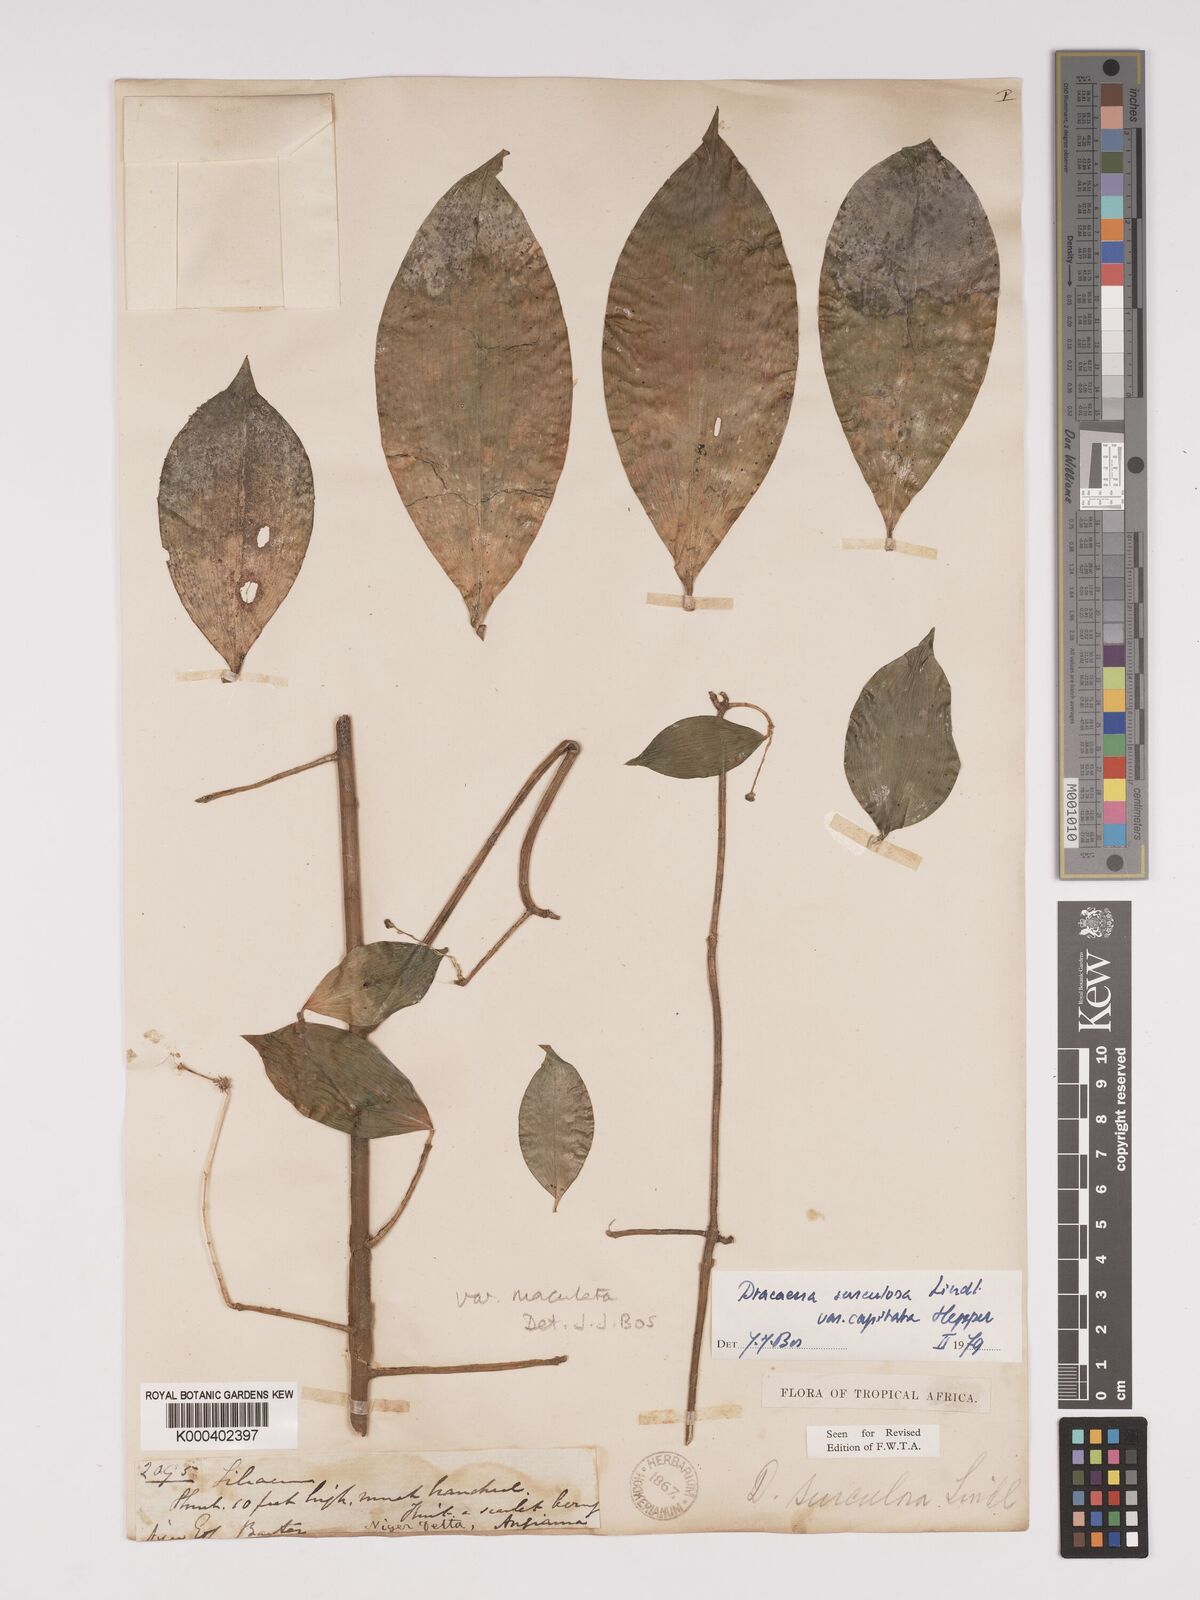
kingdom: Plantae
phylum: Tracheophyta
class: Liliopsida
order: Asparagales
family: Asparagaceae
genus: Dracaena
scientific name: Dracaena surculosa
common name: Spotted dracaena
